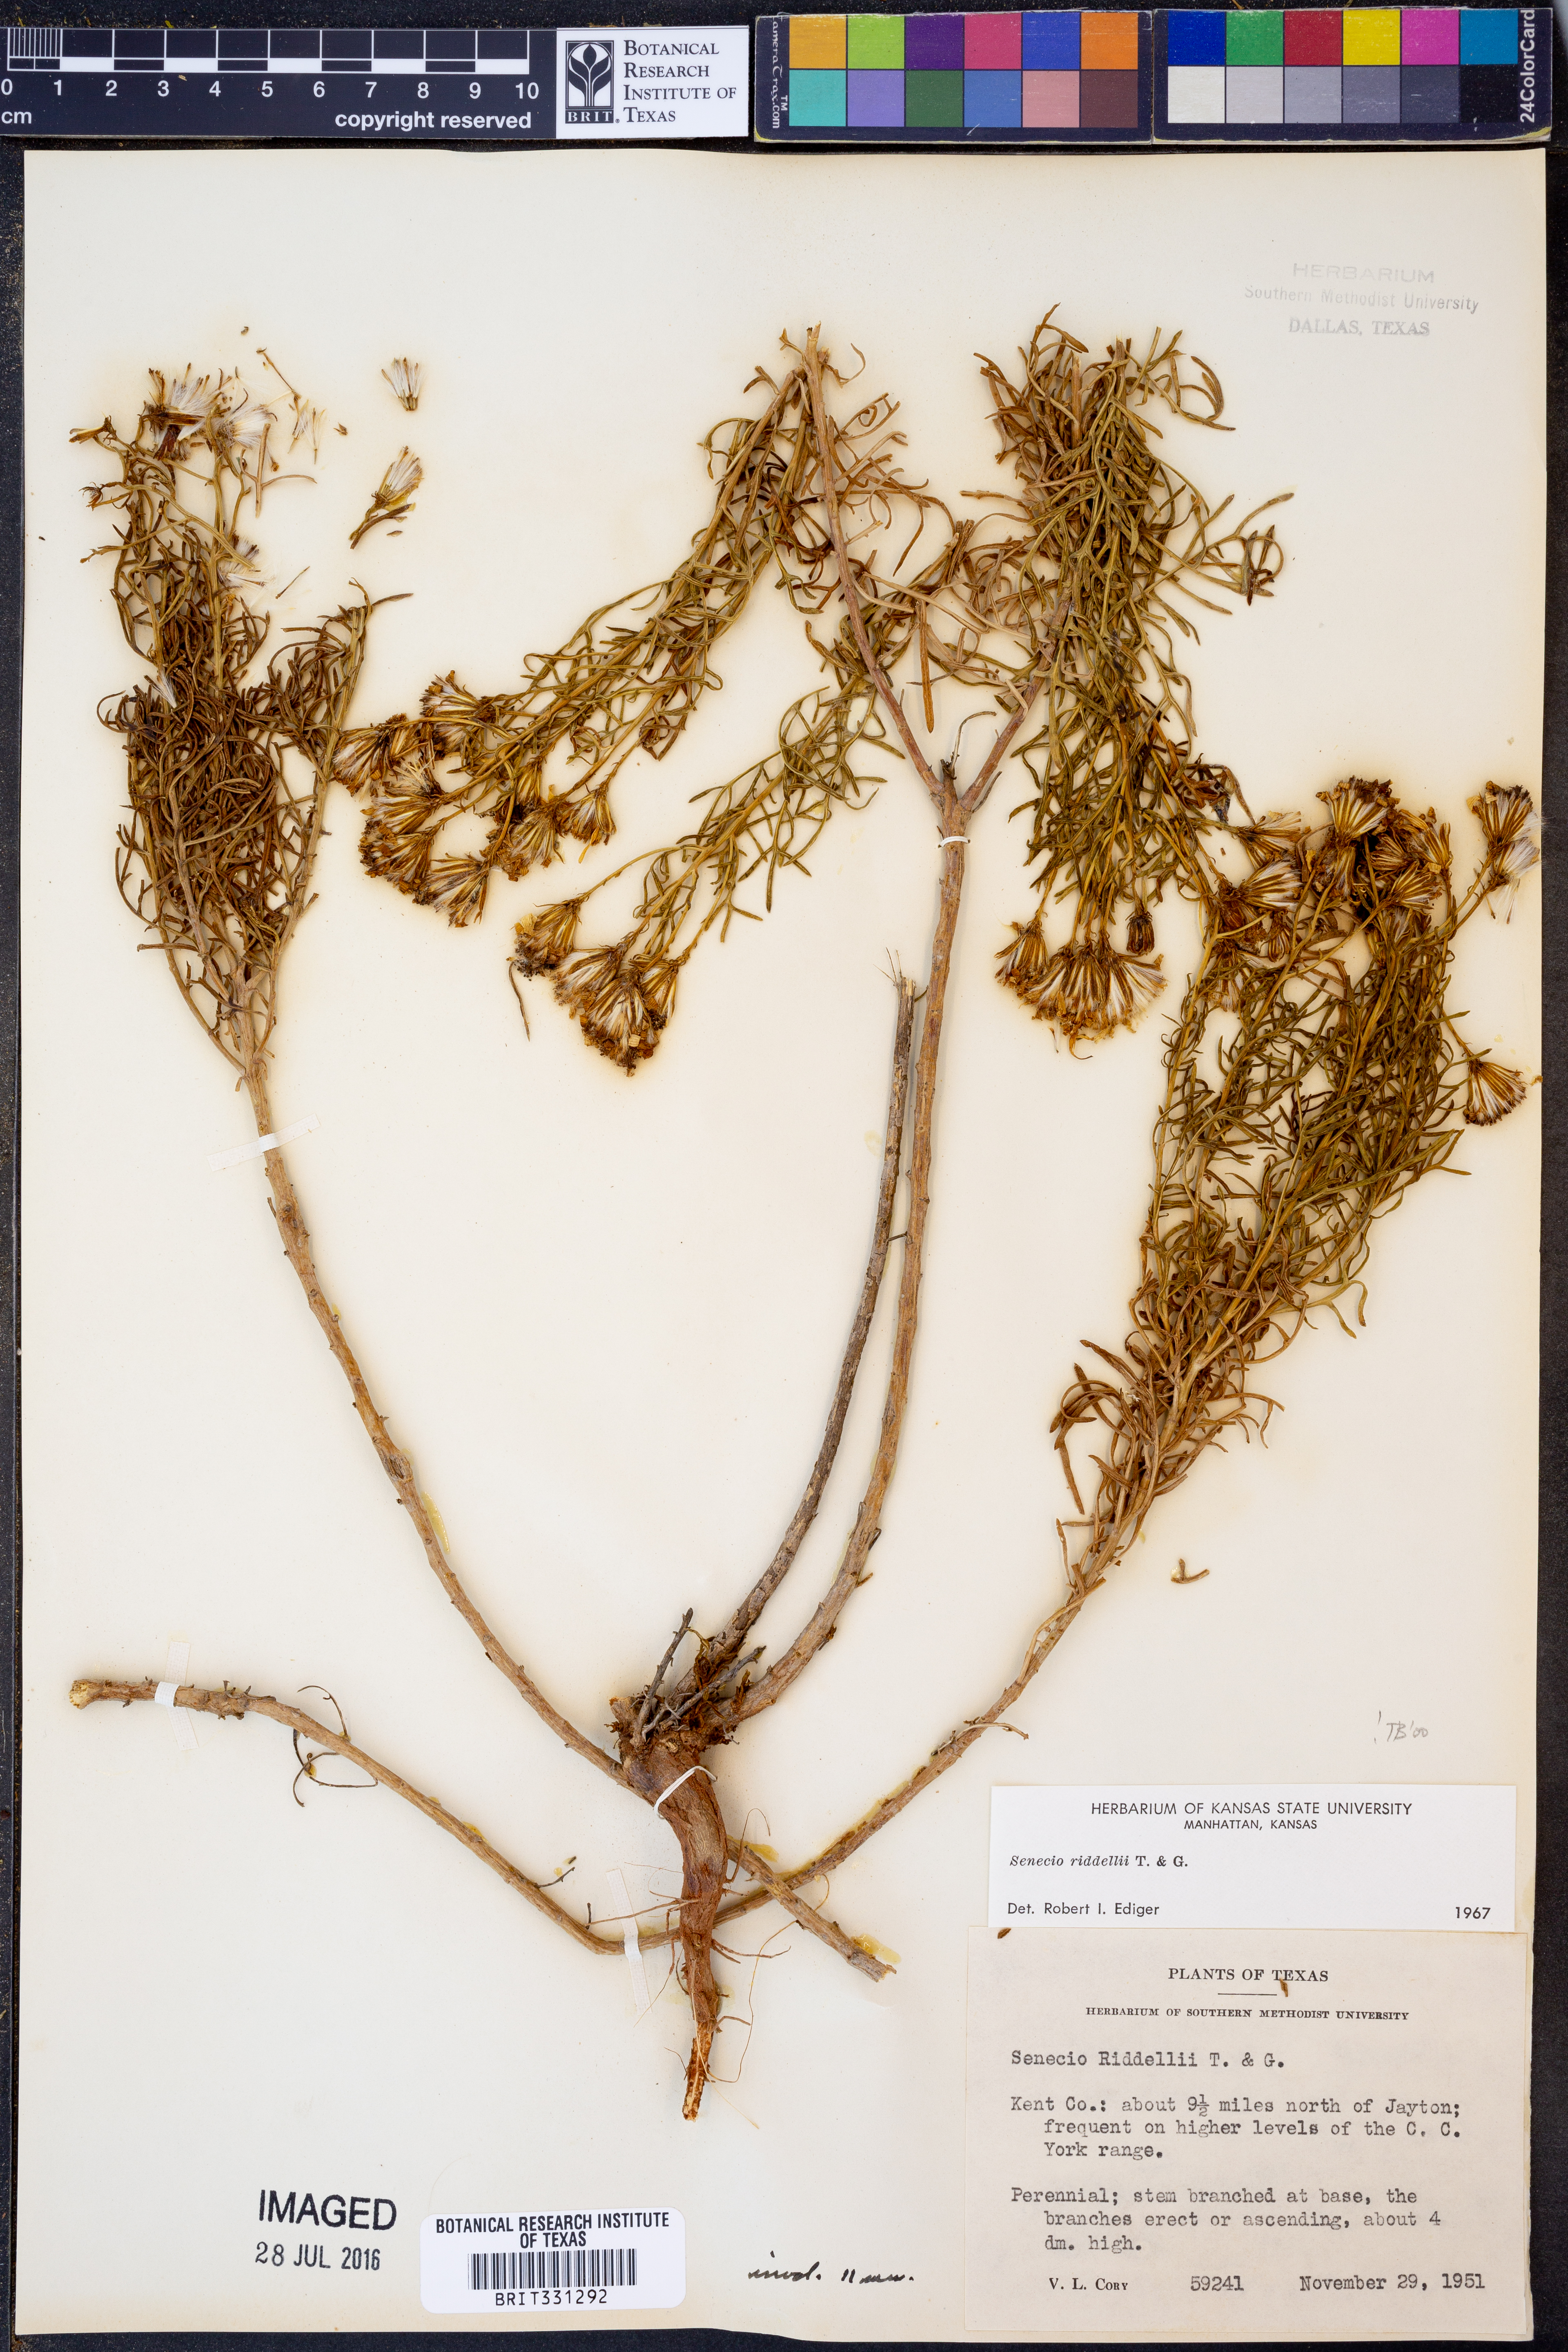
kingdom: Plantae
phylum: Tracheophyta
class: Magnoliopsida
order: Asterales
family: Asteraceae
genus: Senecio
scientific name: Senecio riddellii
